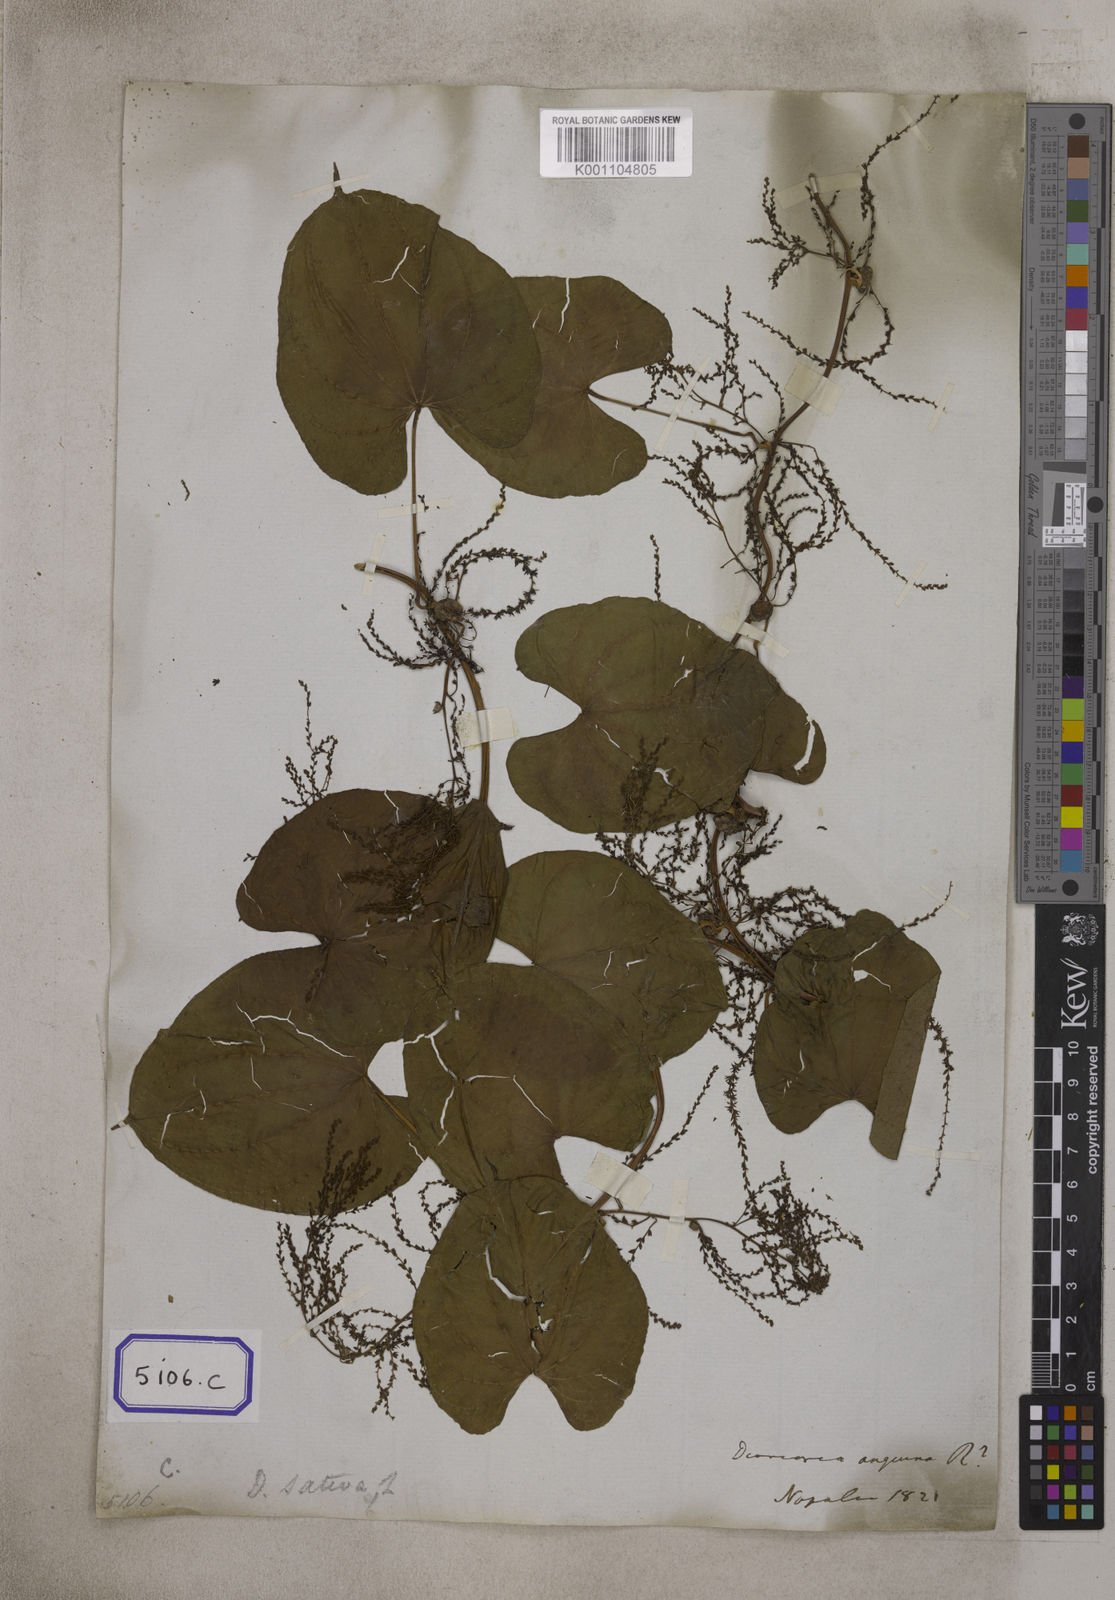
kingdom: Plantae
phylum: Tracheophyta
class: Liliopsida
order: Dioscoreales
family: Dioscoreaceae
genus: Dioscorea
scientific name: Dioscorea
